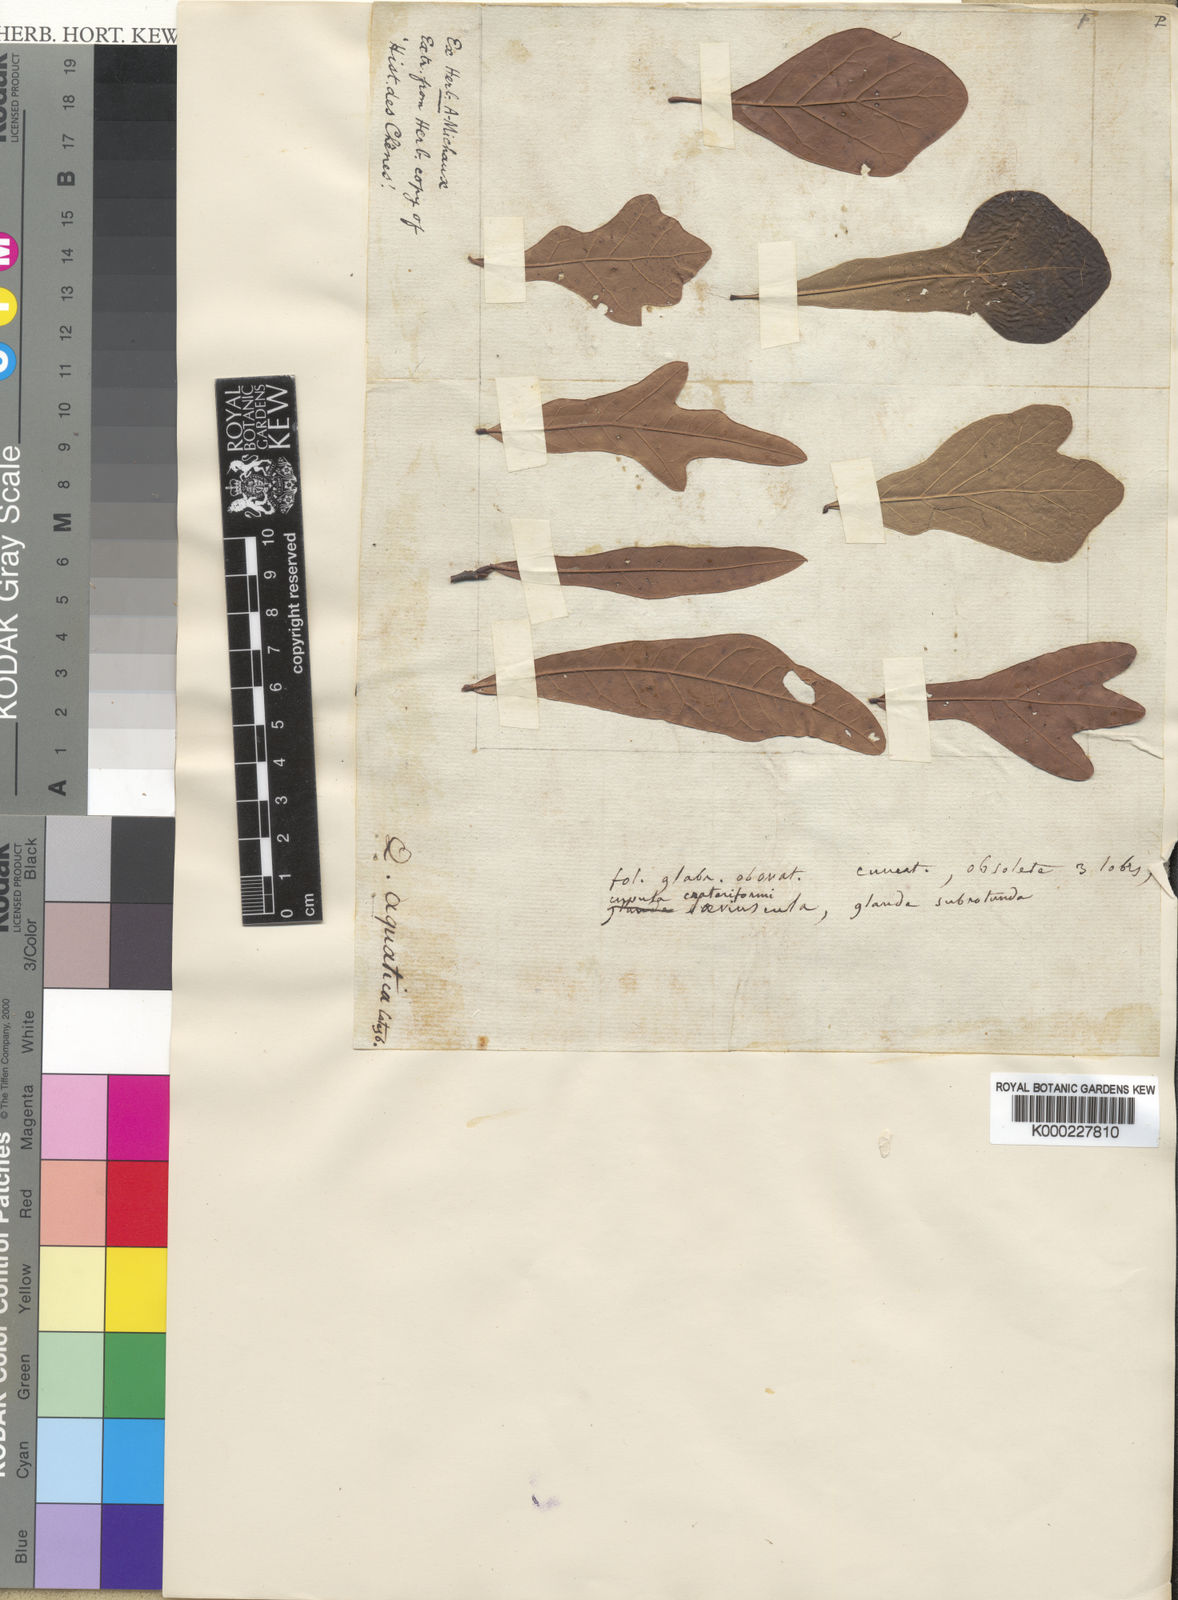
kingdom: Plantae
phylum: Tracheophyta
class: Magnoliopsida
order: Fagales
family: Fagaceae
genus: Quercus
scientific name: Quercus
